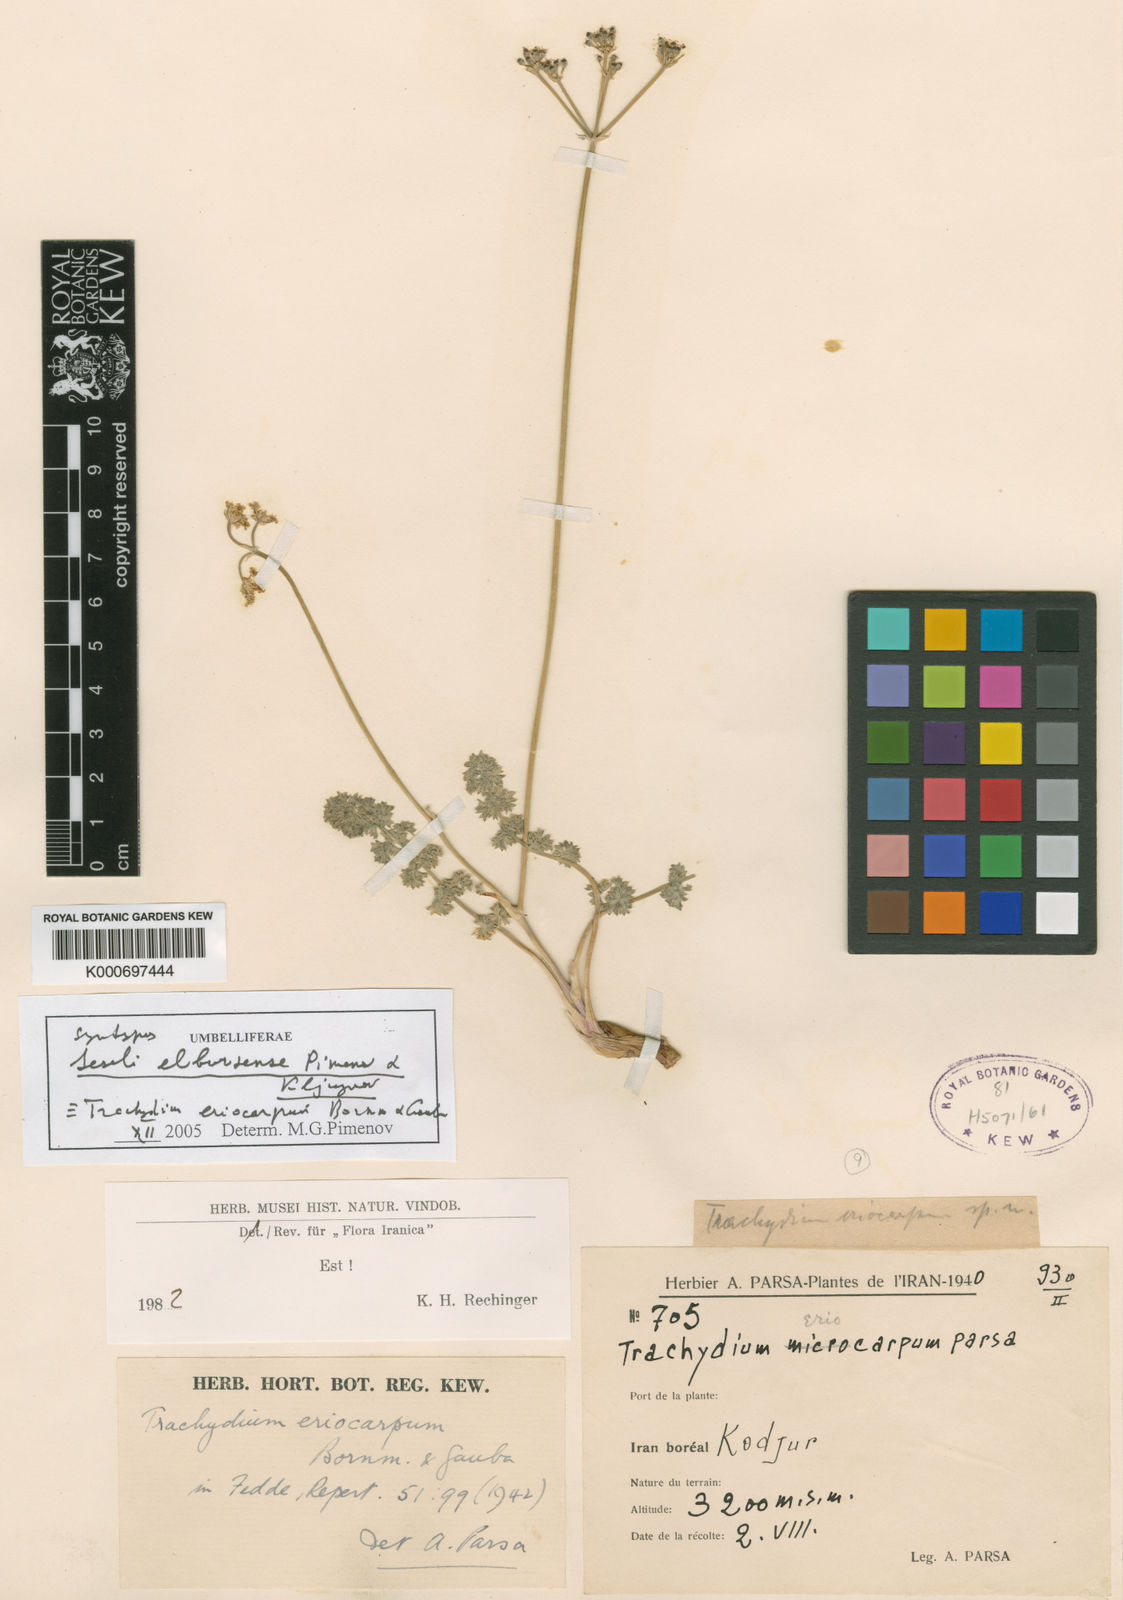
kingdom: Plantae
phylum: Tracheophyta
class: Magnoliopsida
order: Apiales
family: Apiaceae
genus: Seseli
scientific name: Seseli eriocarpum
